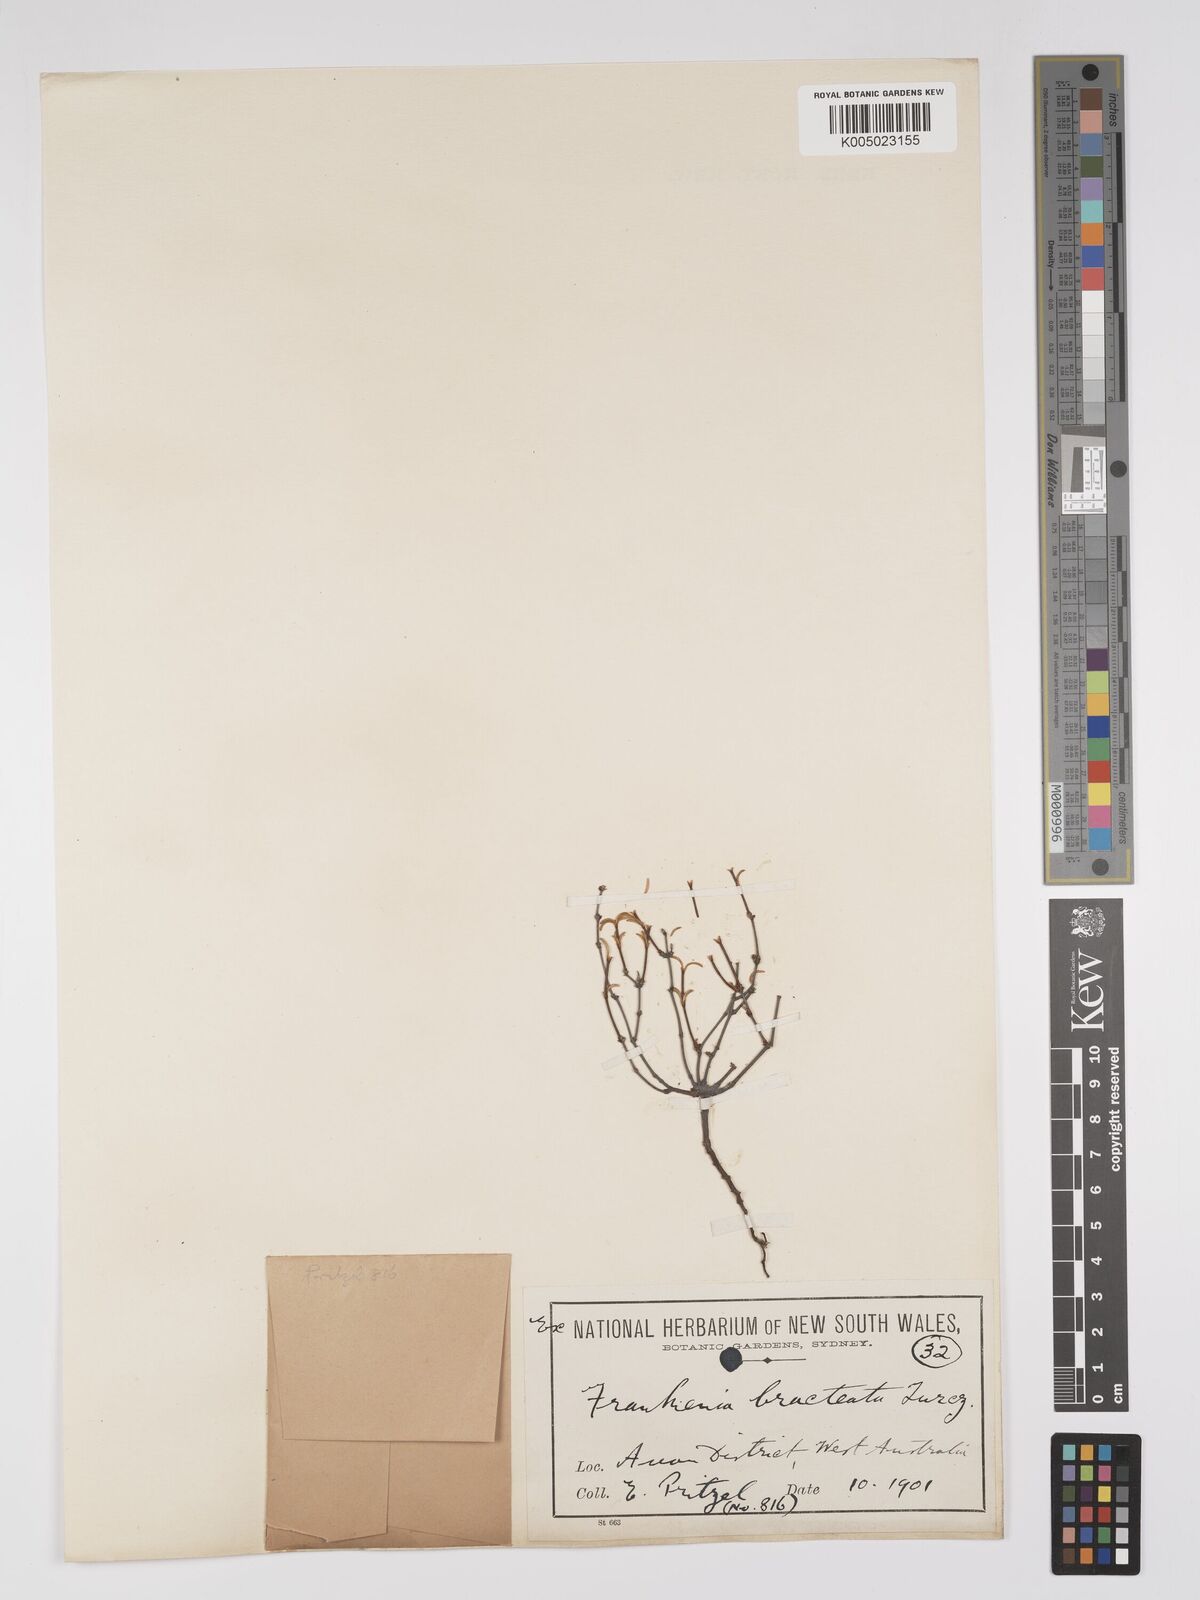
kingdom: Plantae
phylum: Tracheophyta
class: Magnoliopsida
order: Caryophyllales
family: Frankeniaceae
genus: Frankenia
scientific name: Frankenia bracteata
